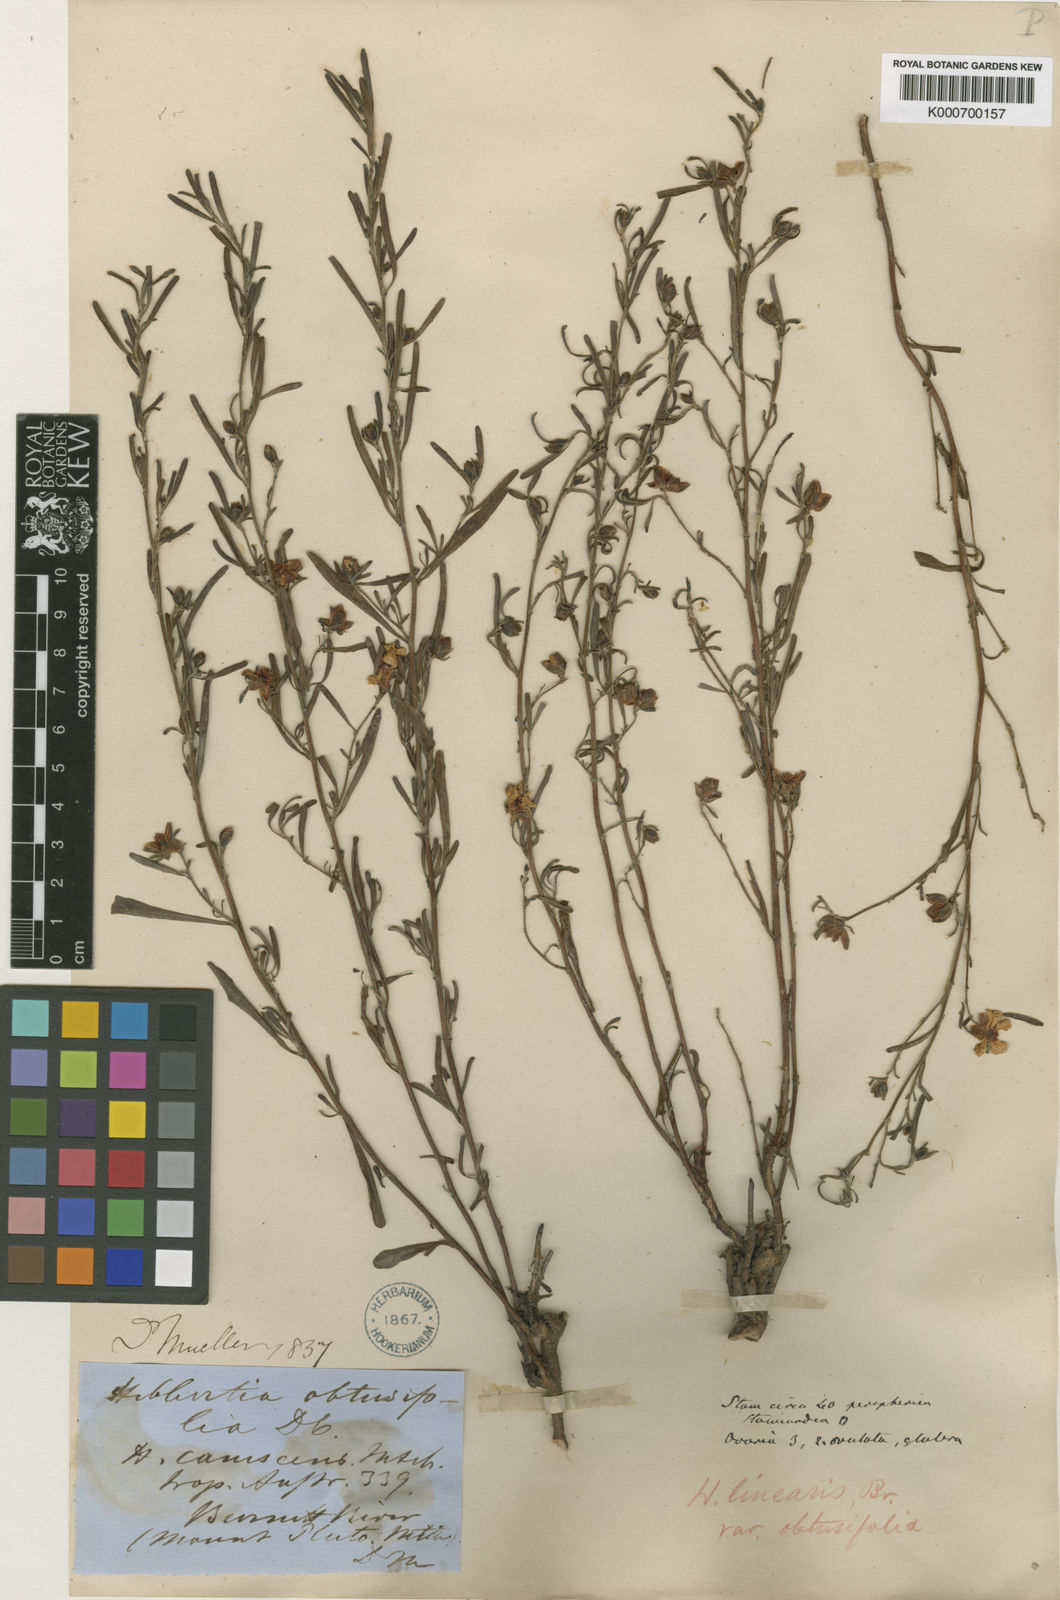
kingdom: Plantae
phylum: Tracheophyta
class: Magnoliopsida
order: Dilleniales
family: Dilleniaceae
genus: Hibbertia
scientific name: Hibbertia obtusifolia
